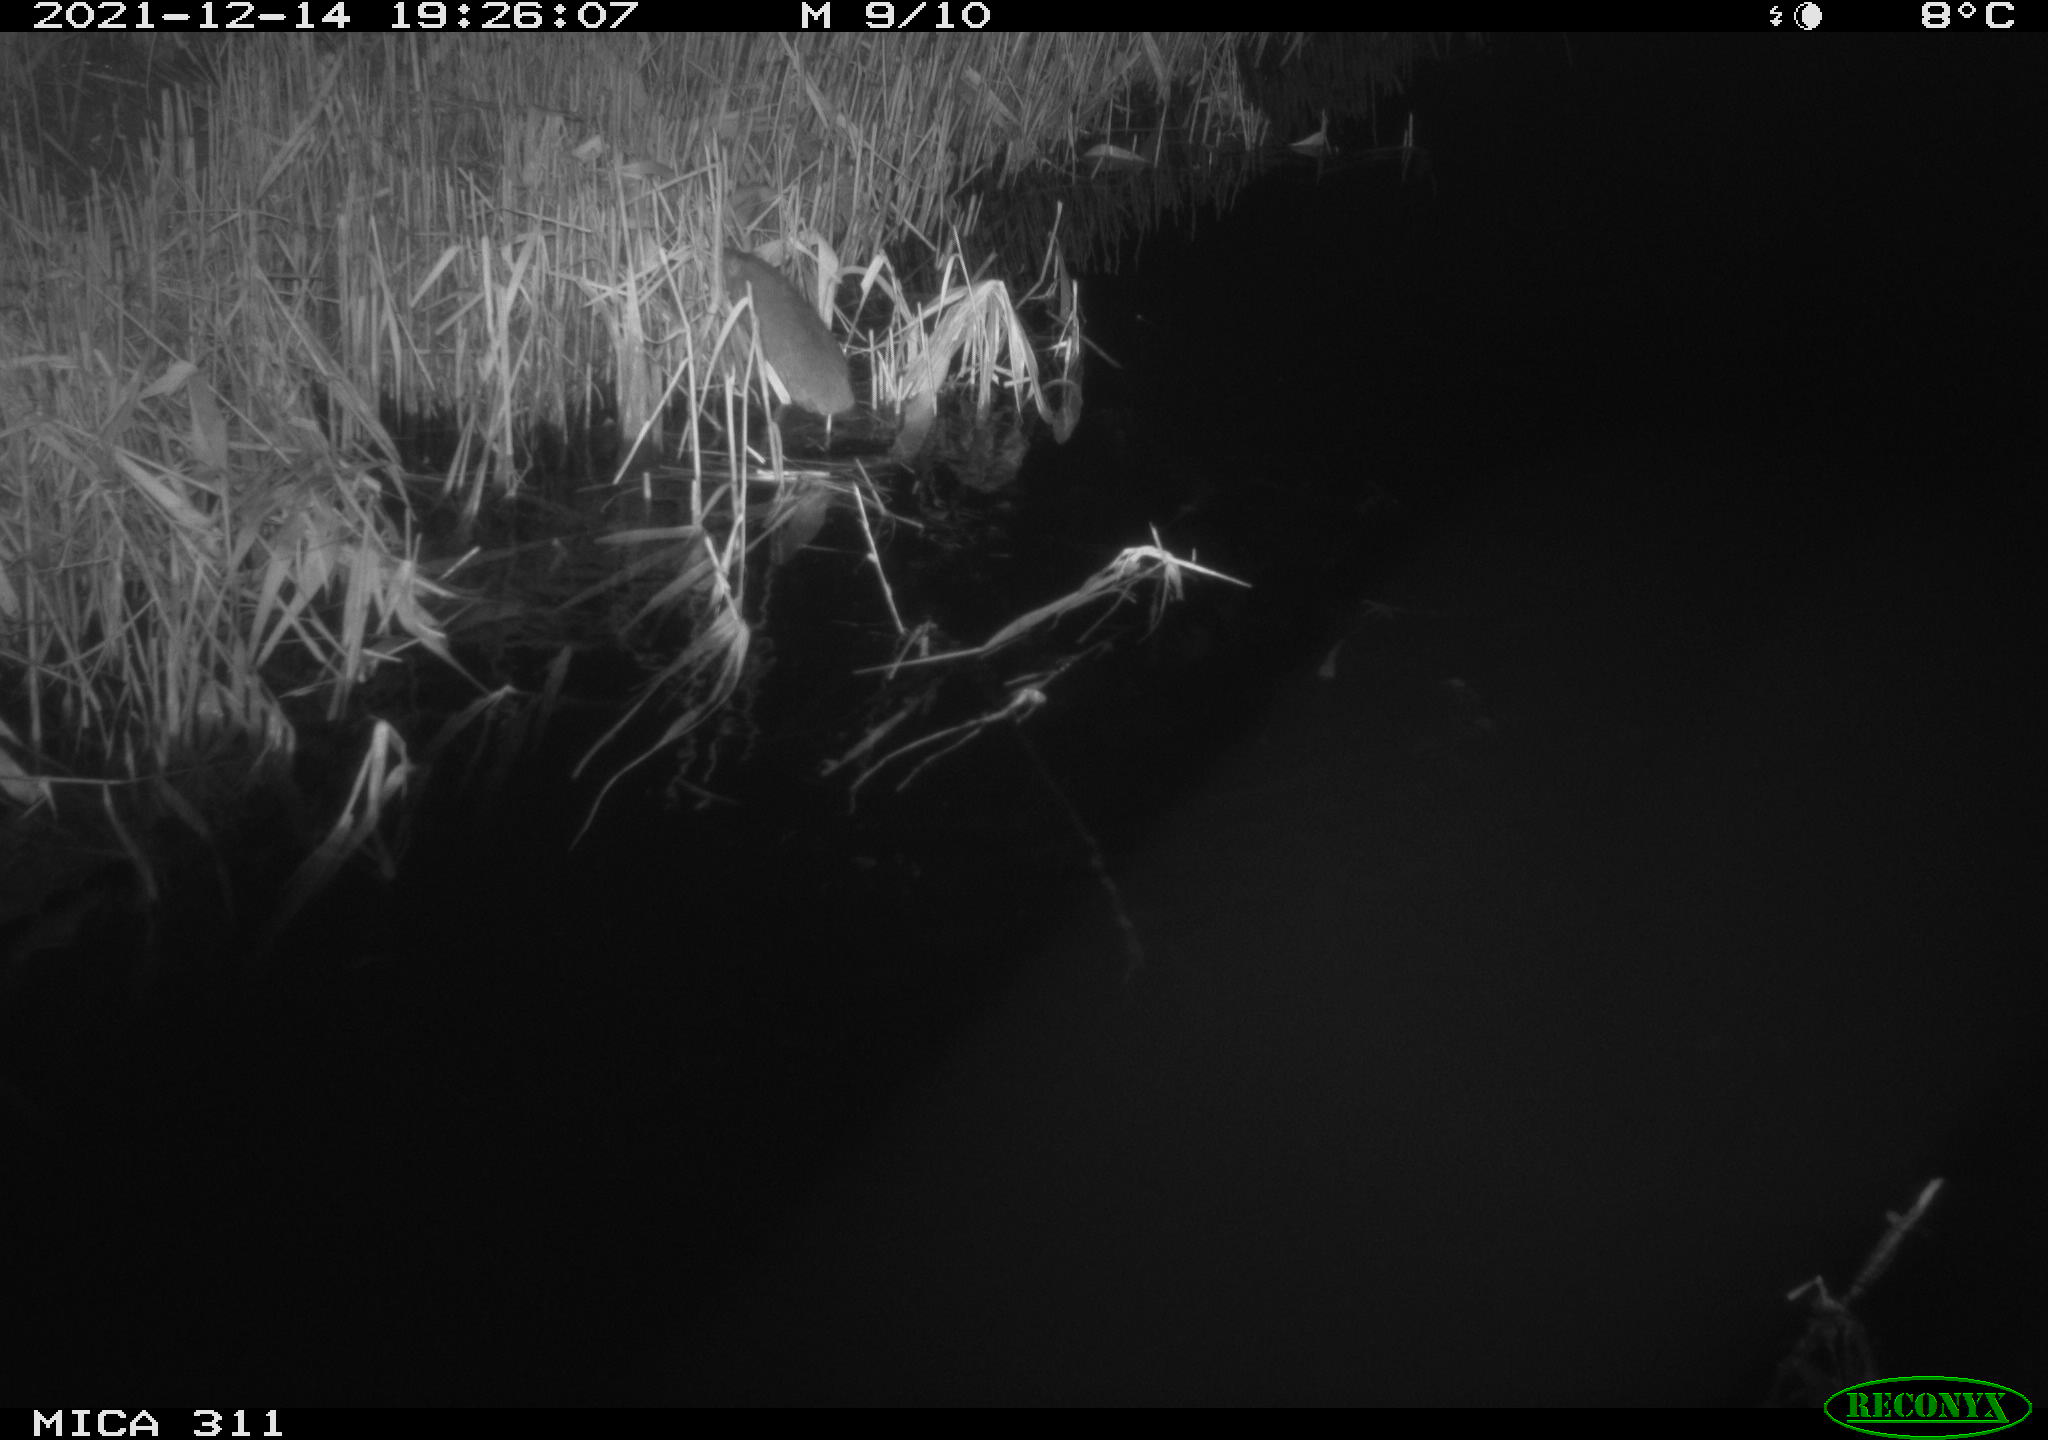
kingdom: Animalia
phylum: Chordata
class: Mammalia
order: Rodentia
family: Muridae
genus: Rattus
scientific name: Rattus norvegicus
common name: Brown rat
